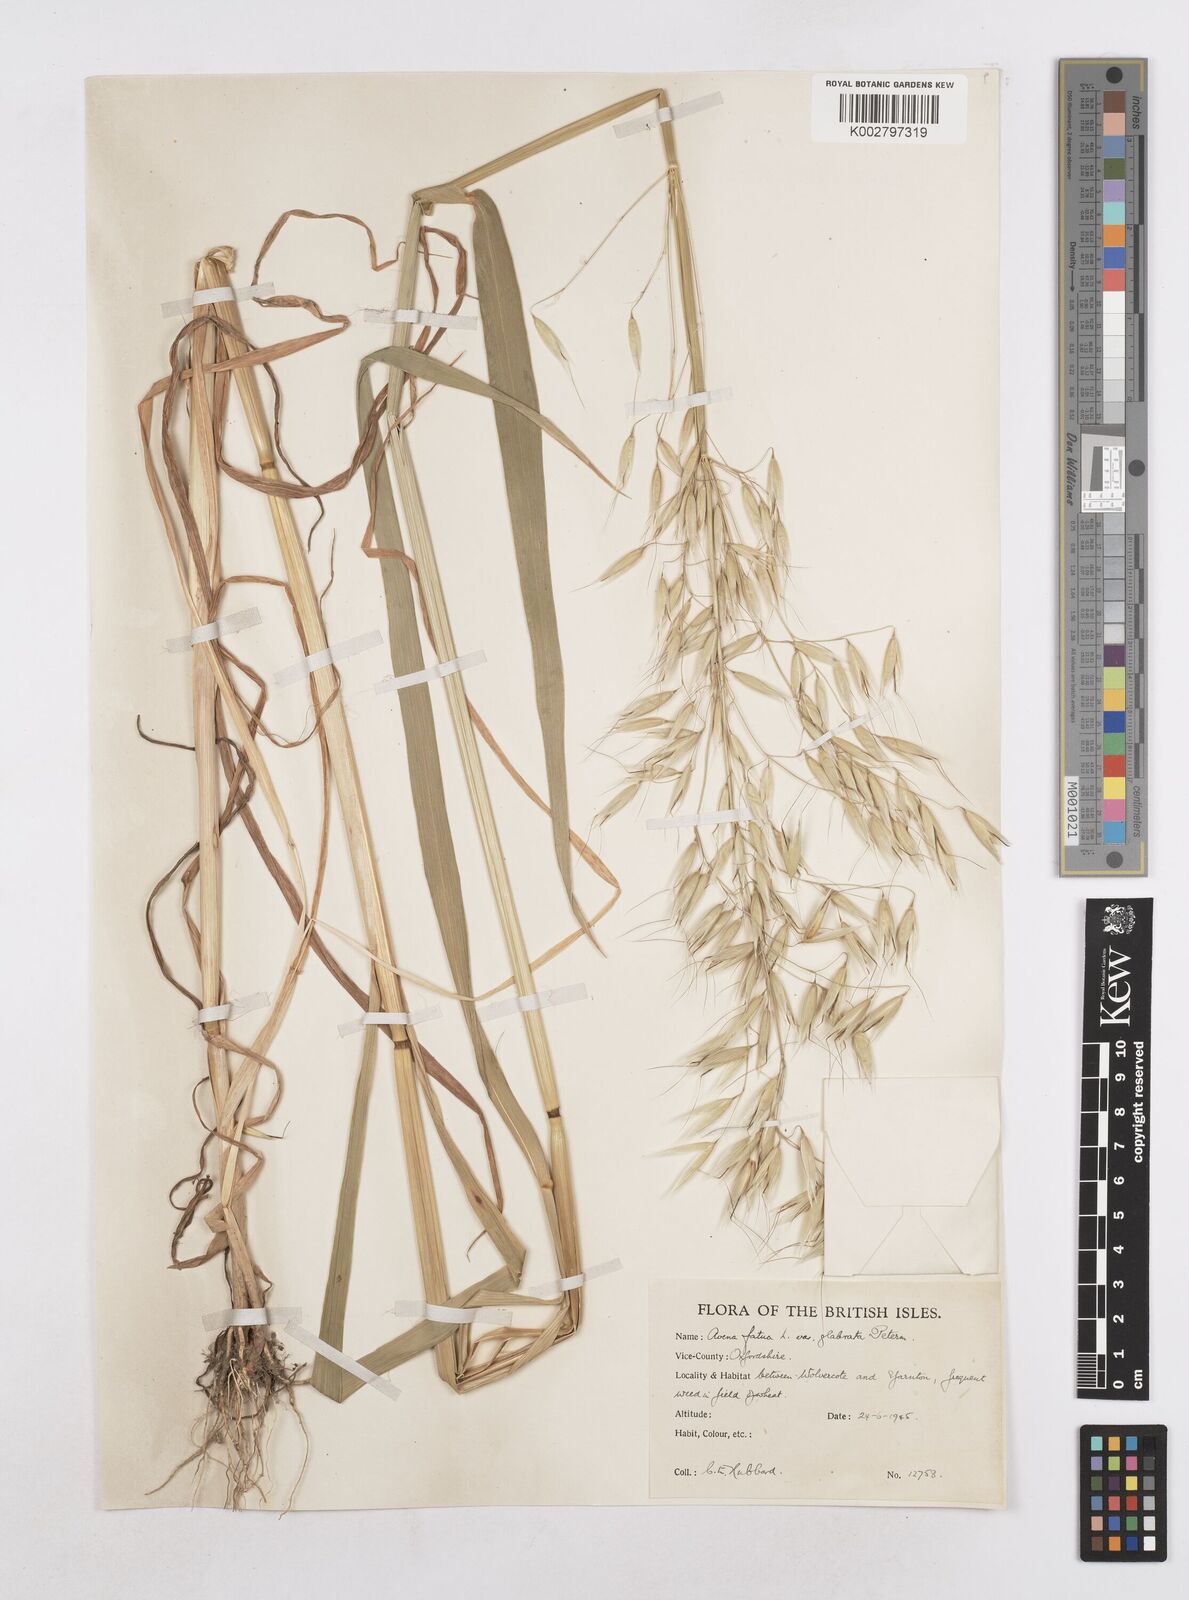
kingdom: Plantae
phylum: Tracheophyta
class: Liliopsida
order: Poales
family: Poaceae
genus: Avena
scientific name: Avena fatua
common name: Wild oat
